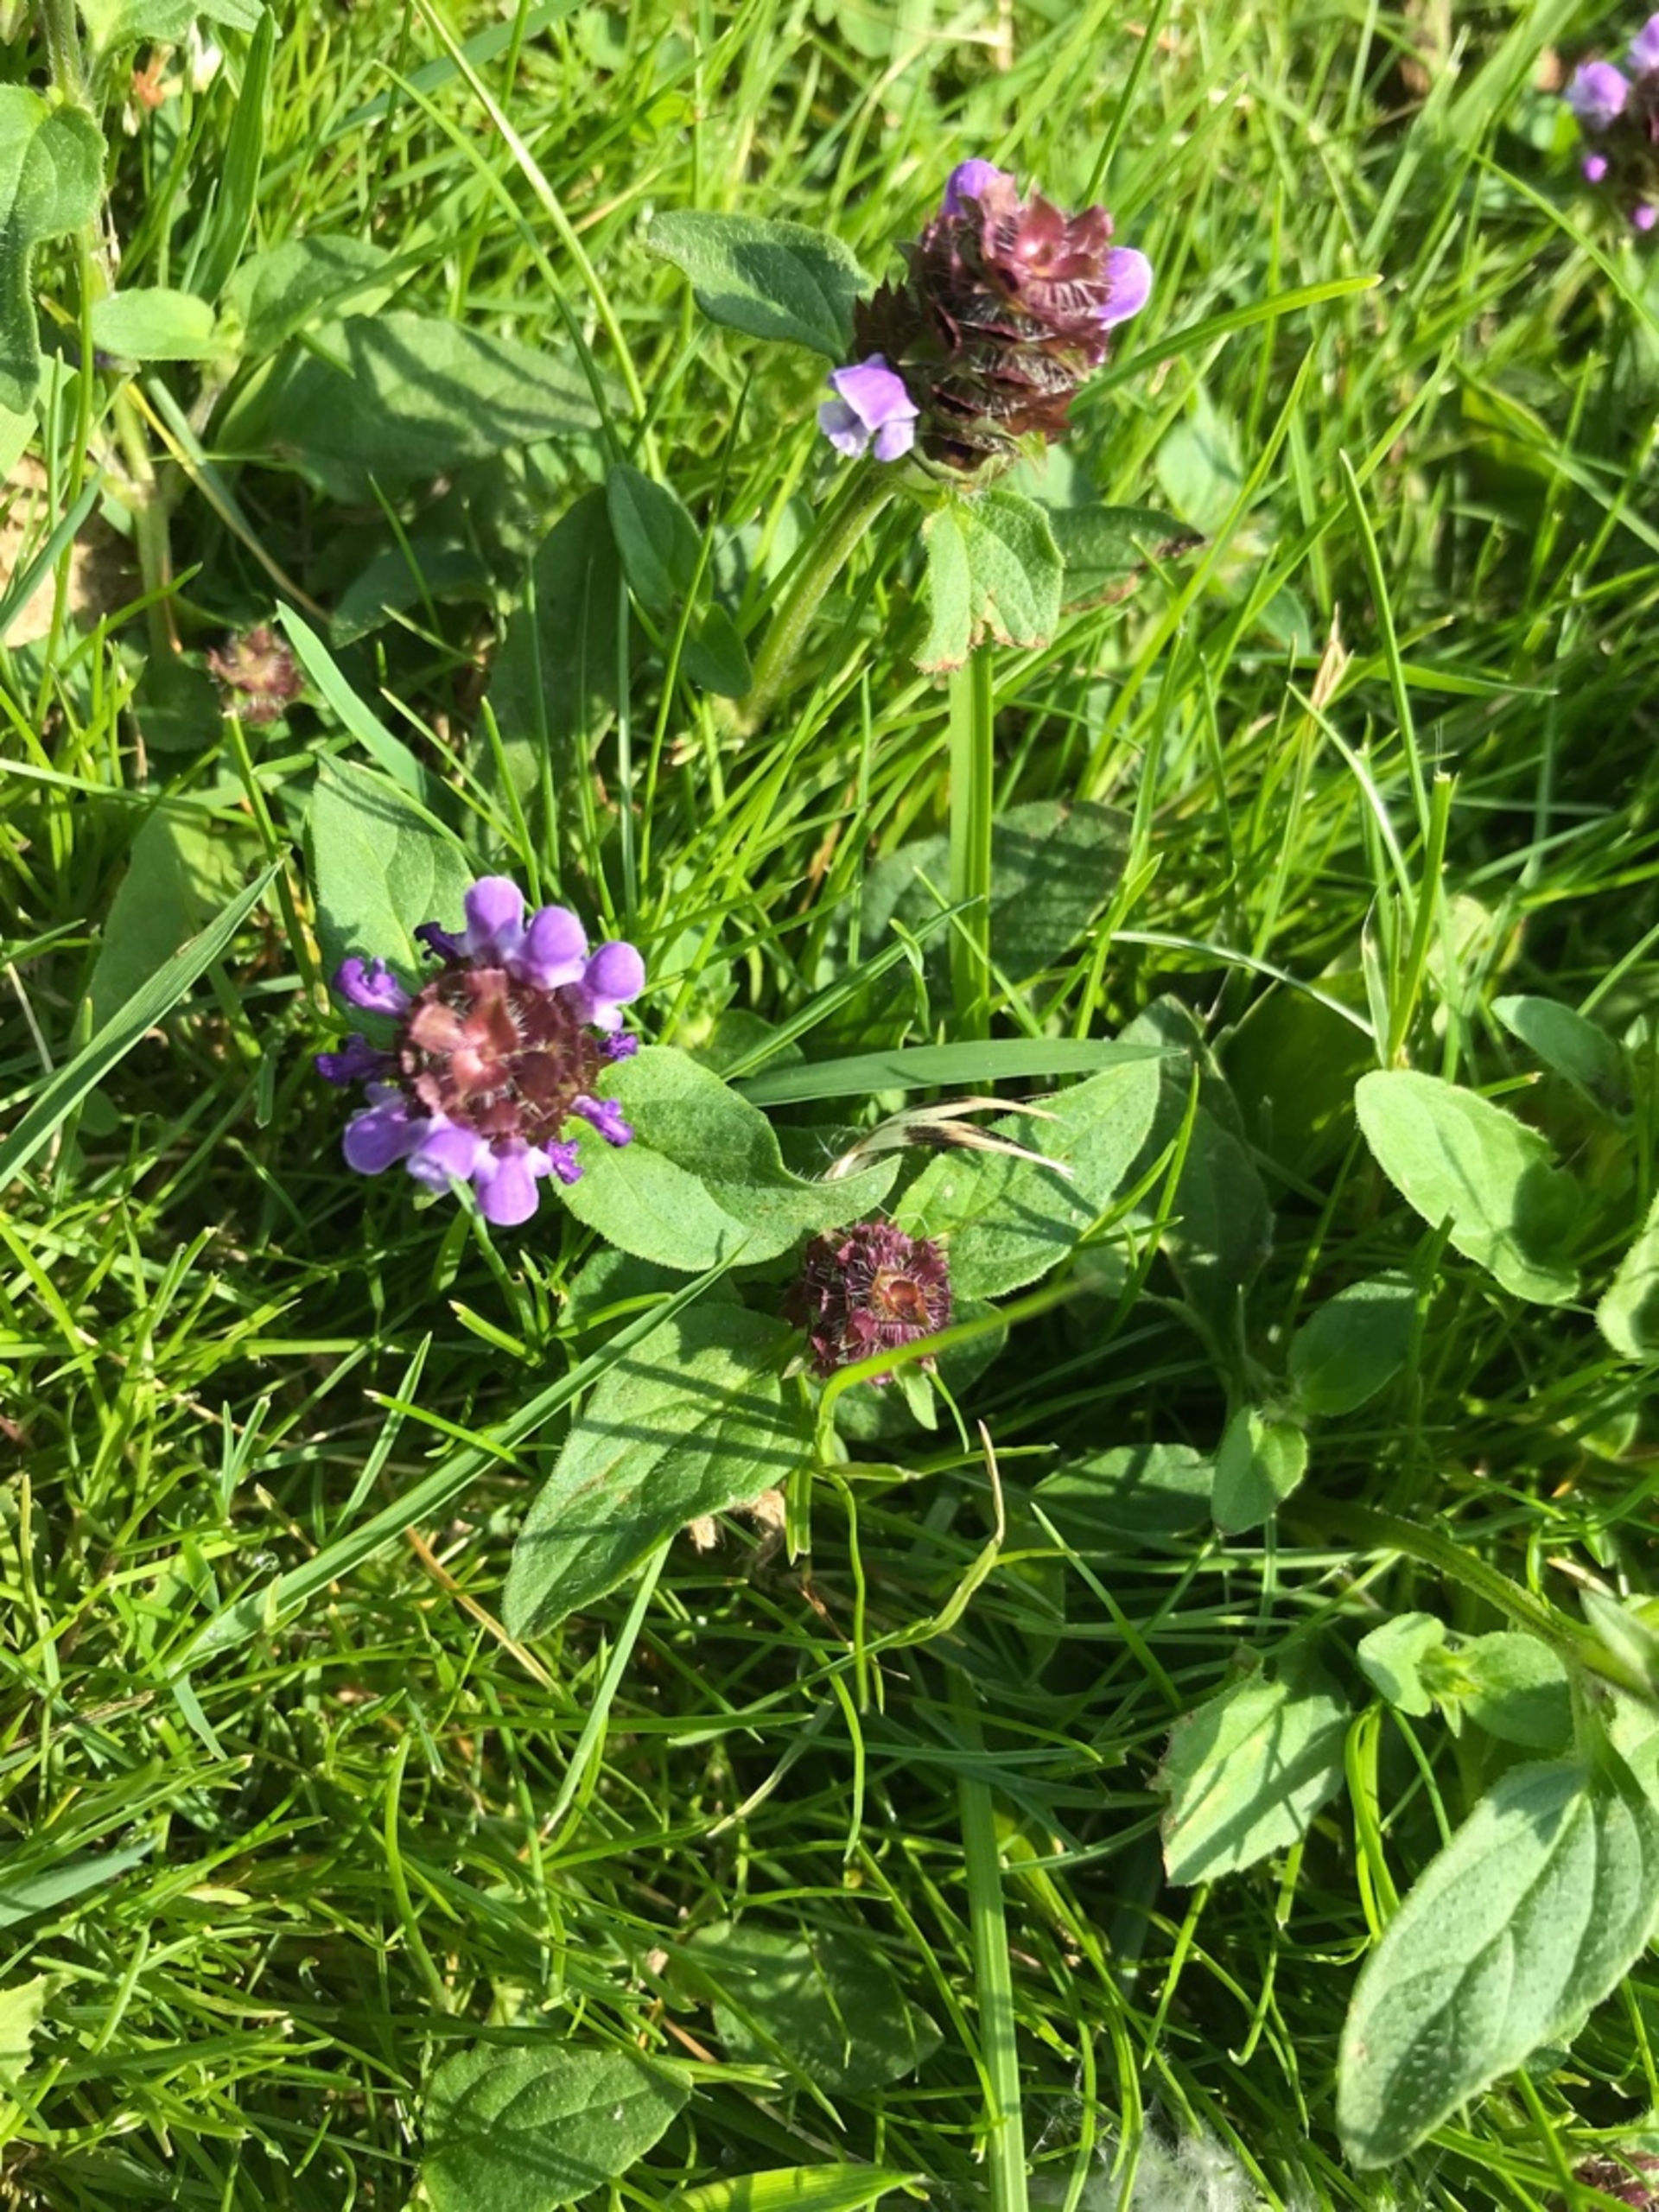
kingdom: Plantae
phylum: Tracheophyta
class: Magnoliopsida
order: Lamiales
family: Lamiaceae
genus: Prunella
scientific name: Prunella vulgaris
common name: Almindelig brunelle
